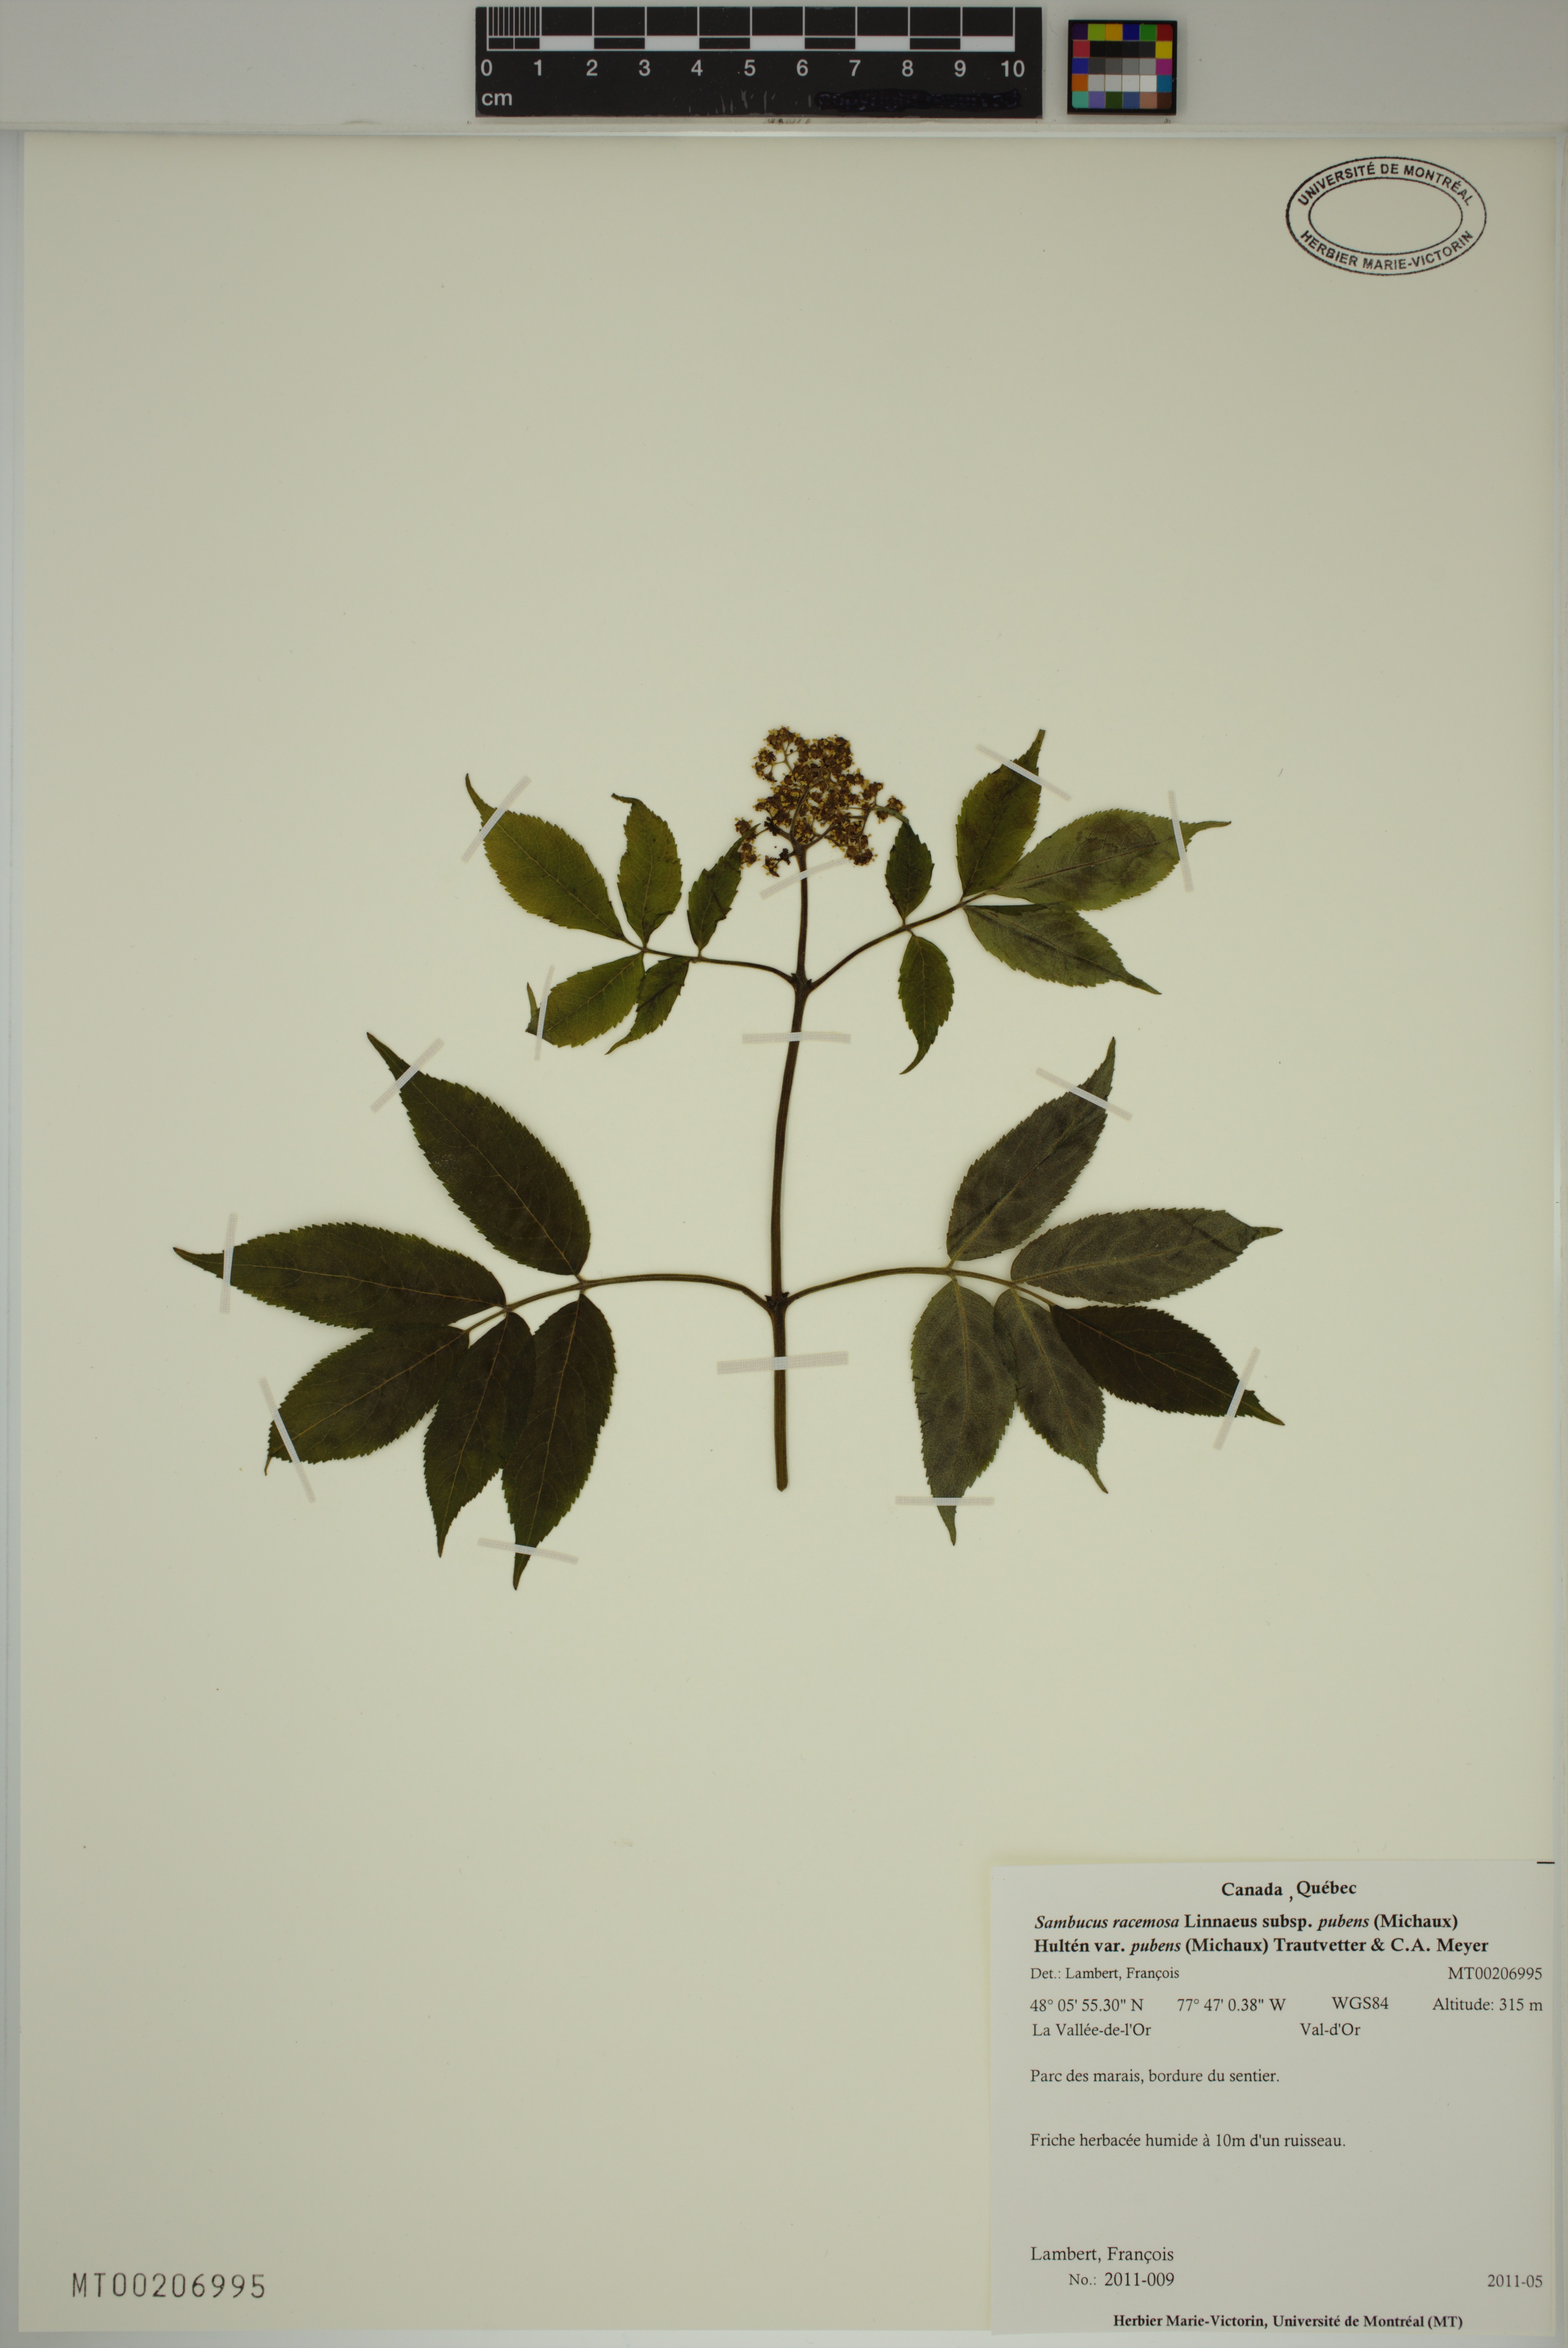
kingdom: Plantae
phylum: Tracheophyta
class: Magnoliopsida
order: Dipsacales
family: Viburnaceae
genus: Sambucus
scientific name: Sambucus racemosa
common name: Red-berried elder
